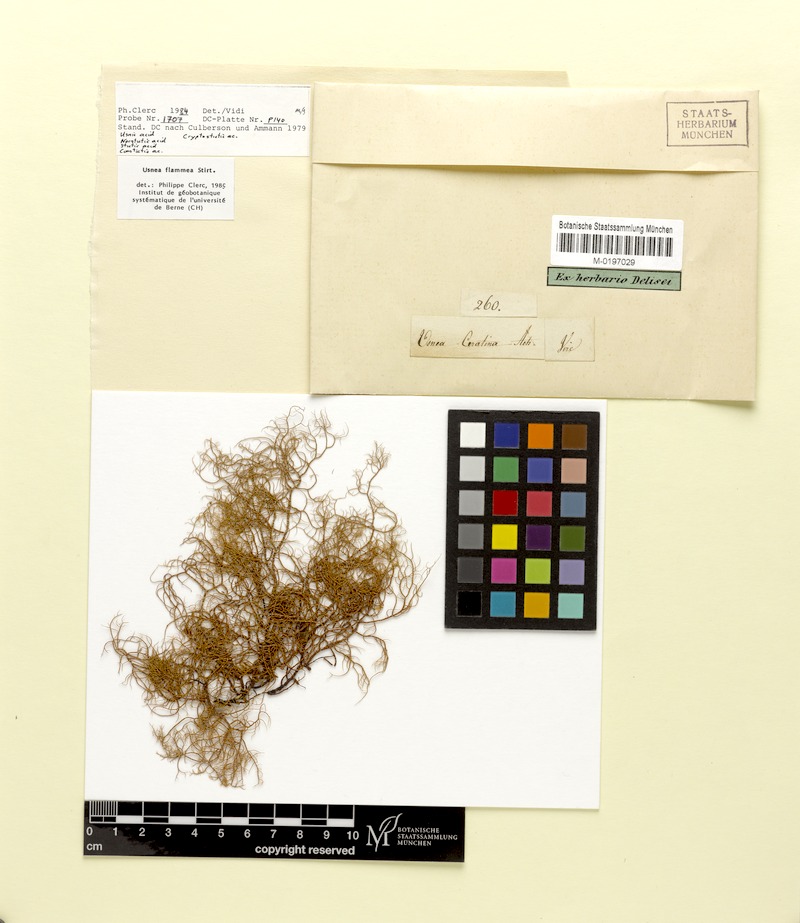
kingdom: Fungi
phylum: Ascomycota
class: Lecanoromycetes
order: Lecanorales
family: Parmeliaceae
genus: Usnea
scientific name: Usnea flammea
